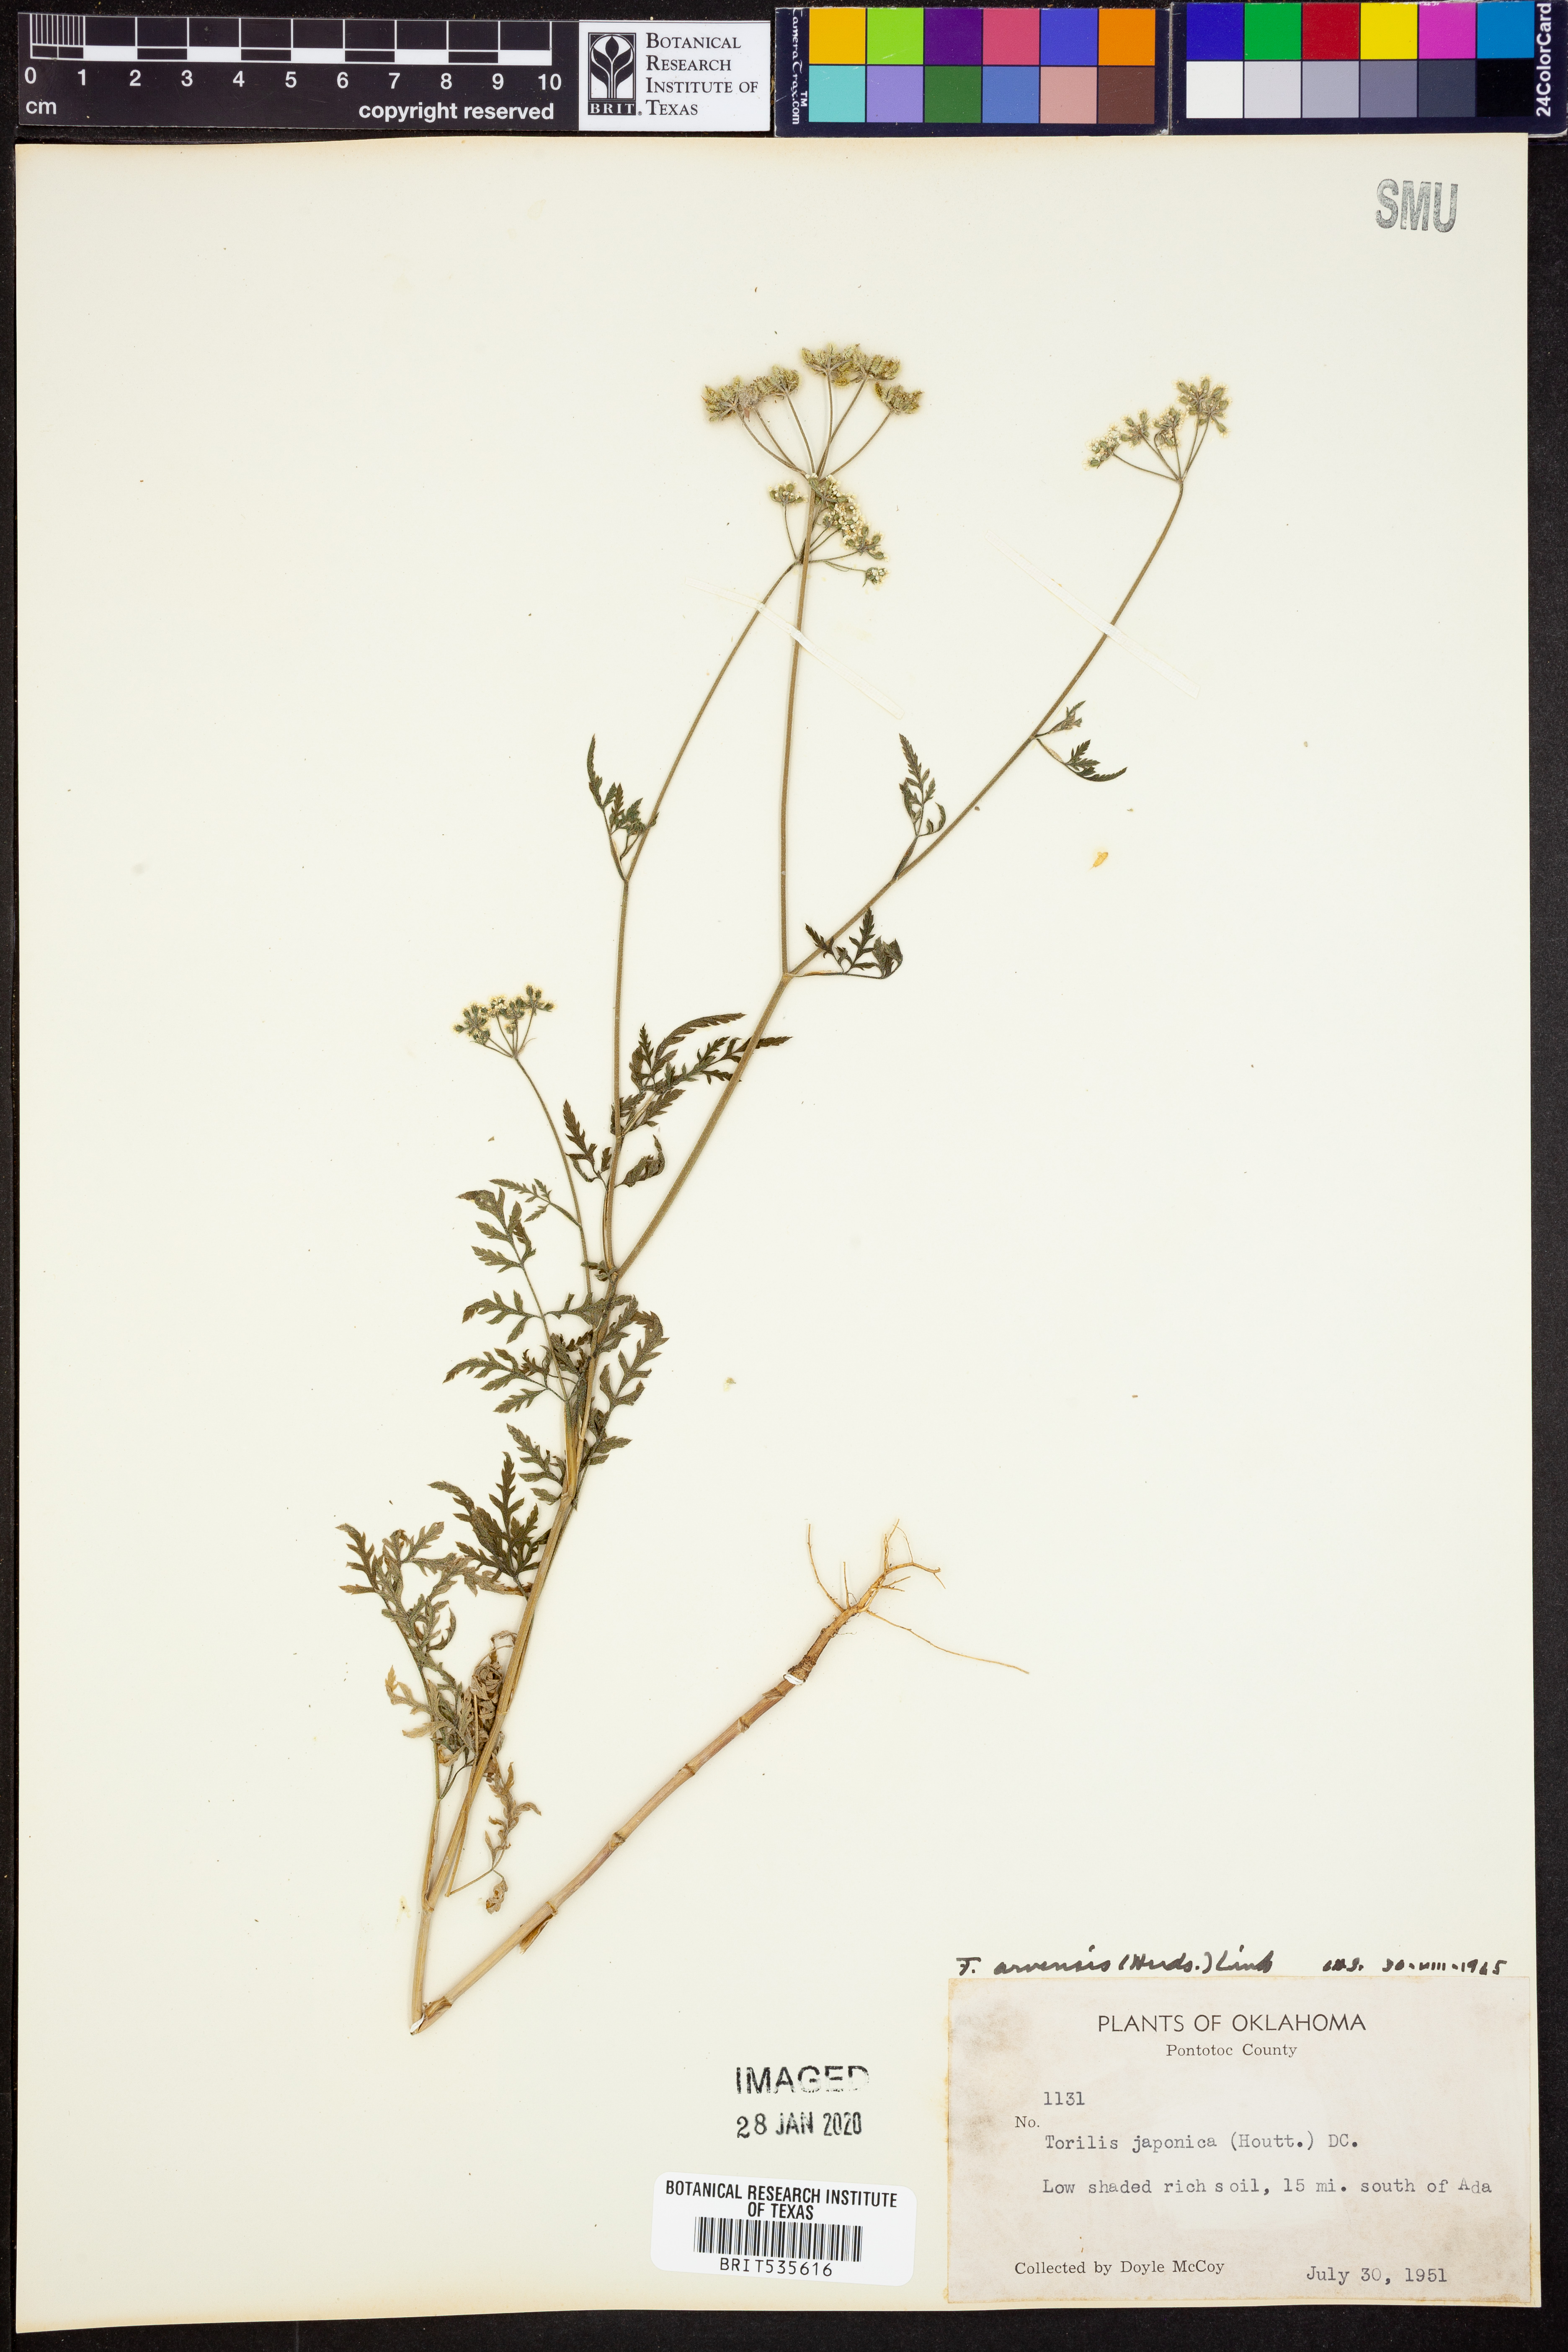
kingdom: Plantae
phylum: Tracheophyta
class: Magnoliopsida
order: Apiales
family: Apiaceae
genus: Torilis
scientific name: Torilis arvensis
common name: Spreading hedge-parsley
